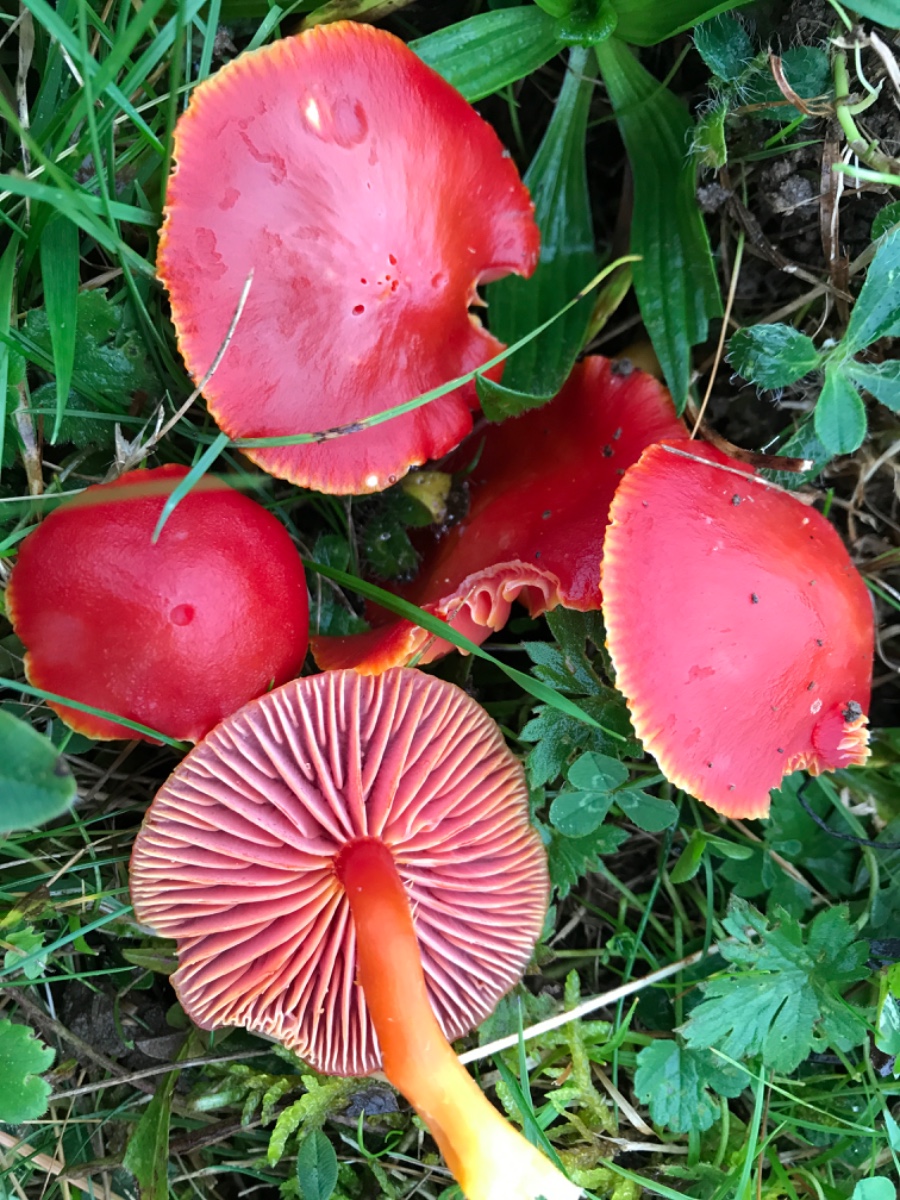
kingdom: Fungi
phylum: Basidiomycota
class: Agaricomycetes
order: Agaricales
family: Hygrophoraceae
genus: Hygrocybe
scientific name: Hygrocybe coccinea
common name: cinnober-vokshat
